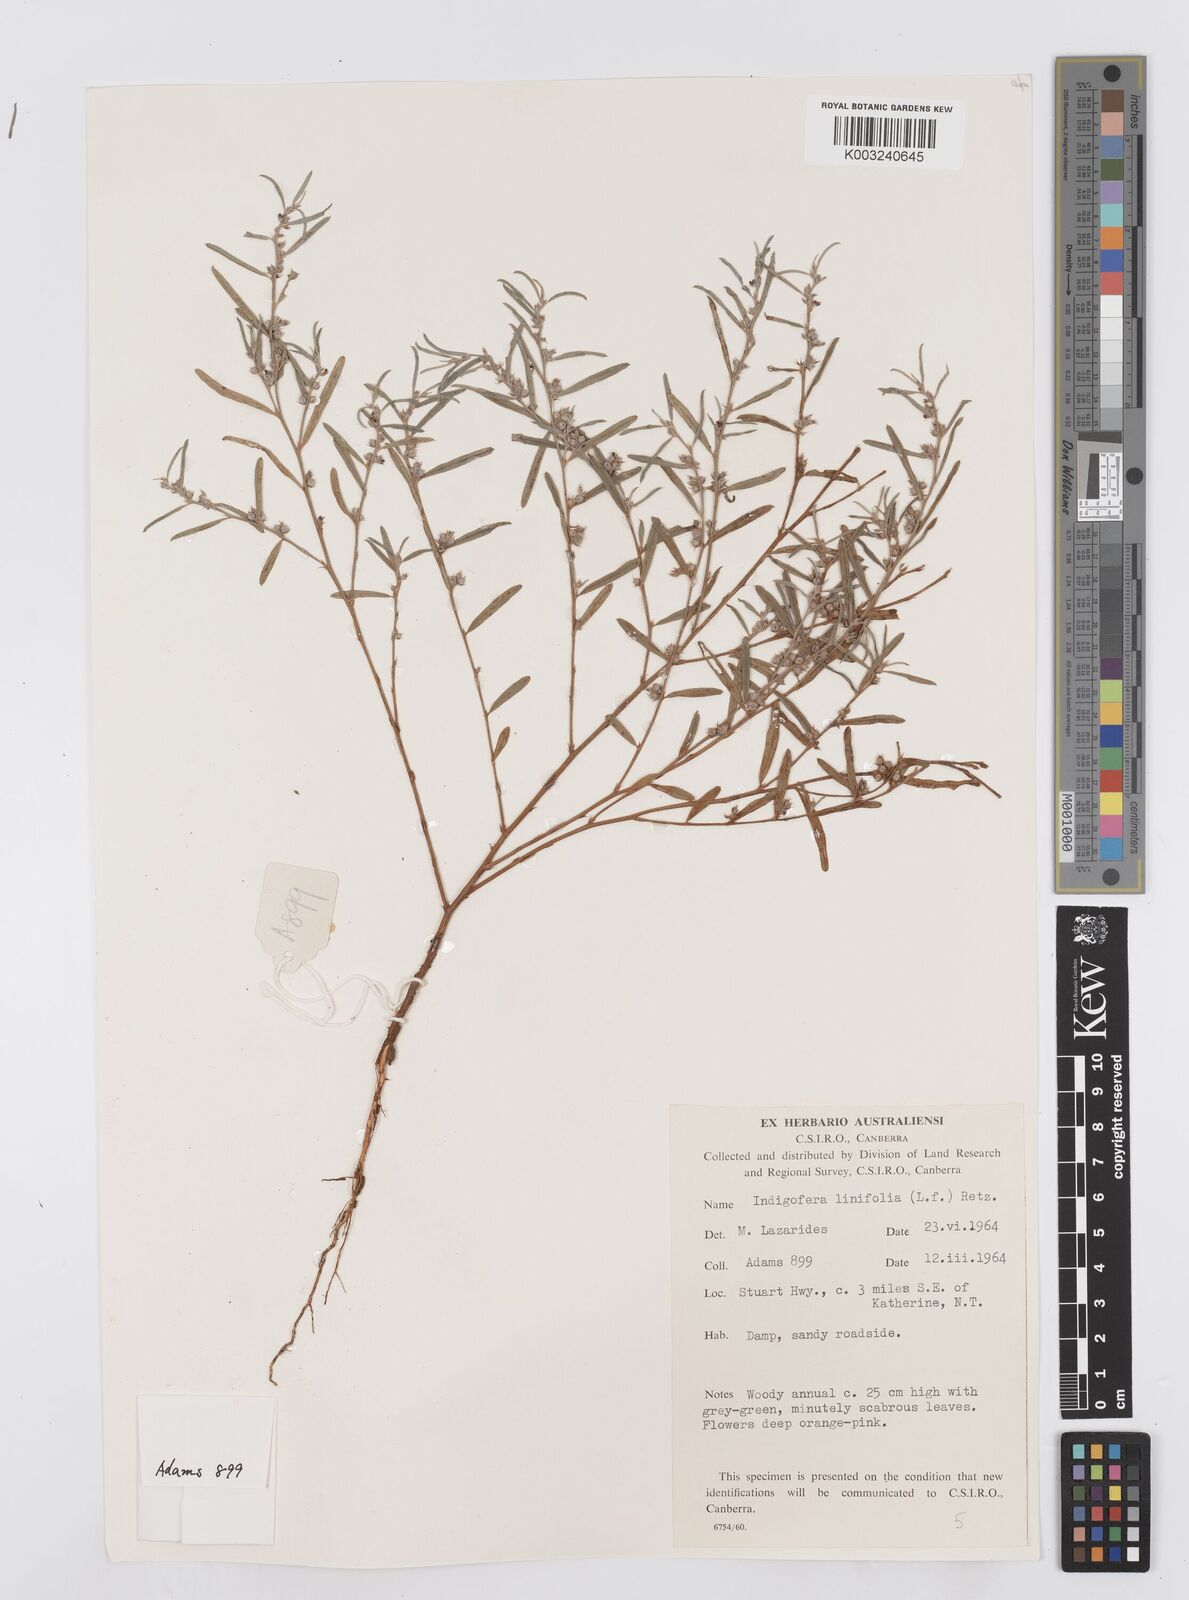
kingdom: Plantae
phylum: Tracheophyta
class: Magnoliopsida
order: Fabales
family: Fabaceae
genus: Indigofera
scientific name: Indigofera linifolia
